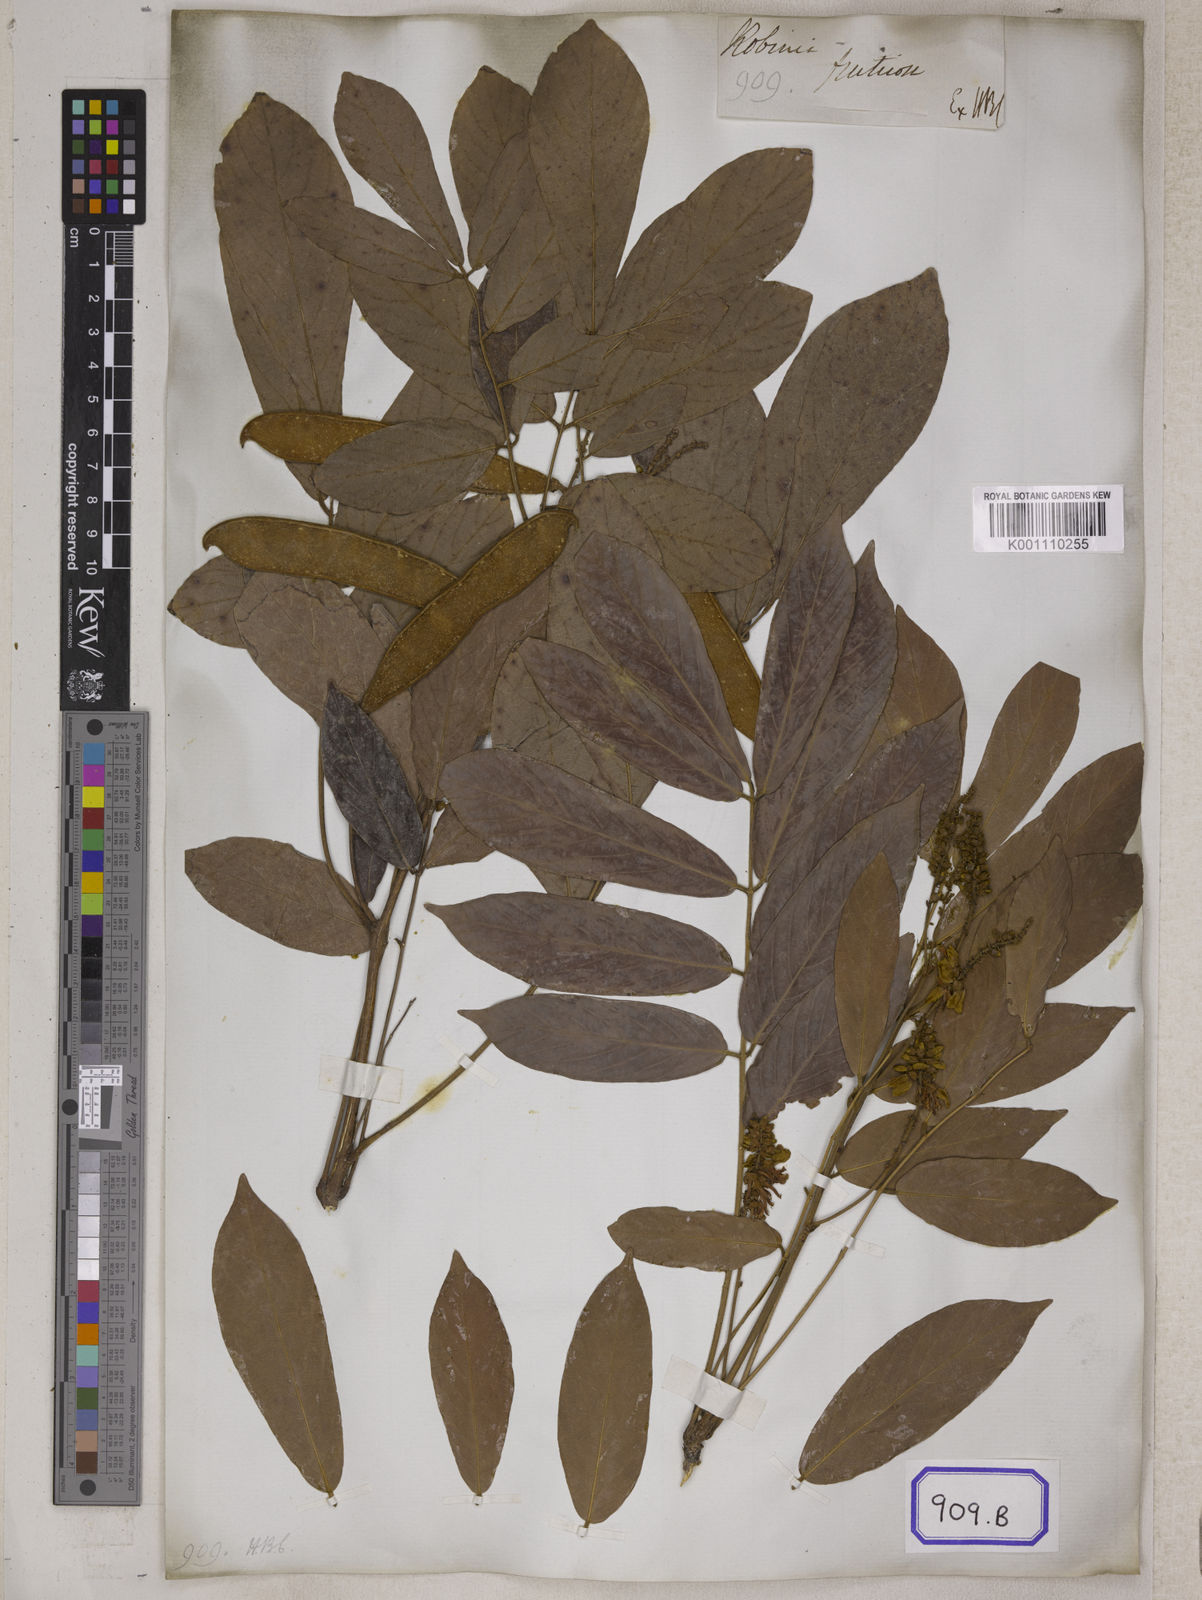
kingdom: Plantae
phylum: Tracheophyta
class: Magnoliopsida
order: Fabales
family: Fabaceae
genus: Millettia
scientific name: Millettia fruticosa
